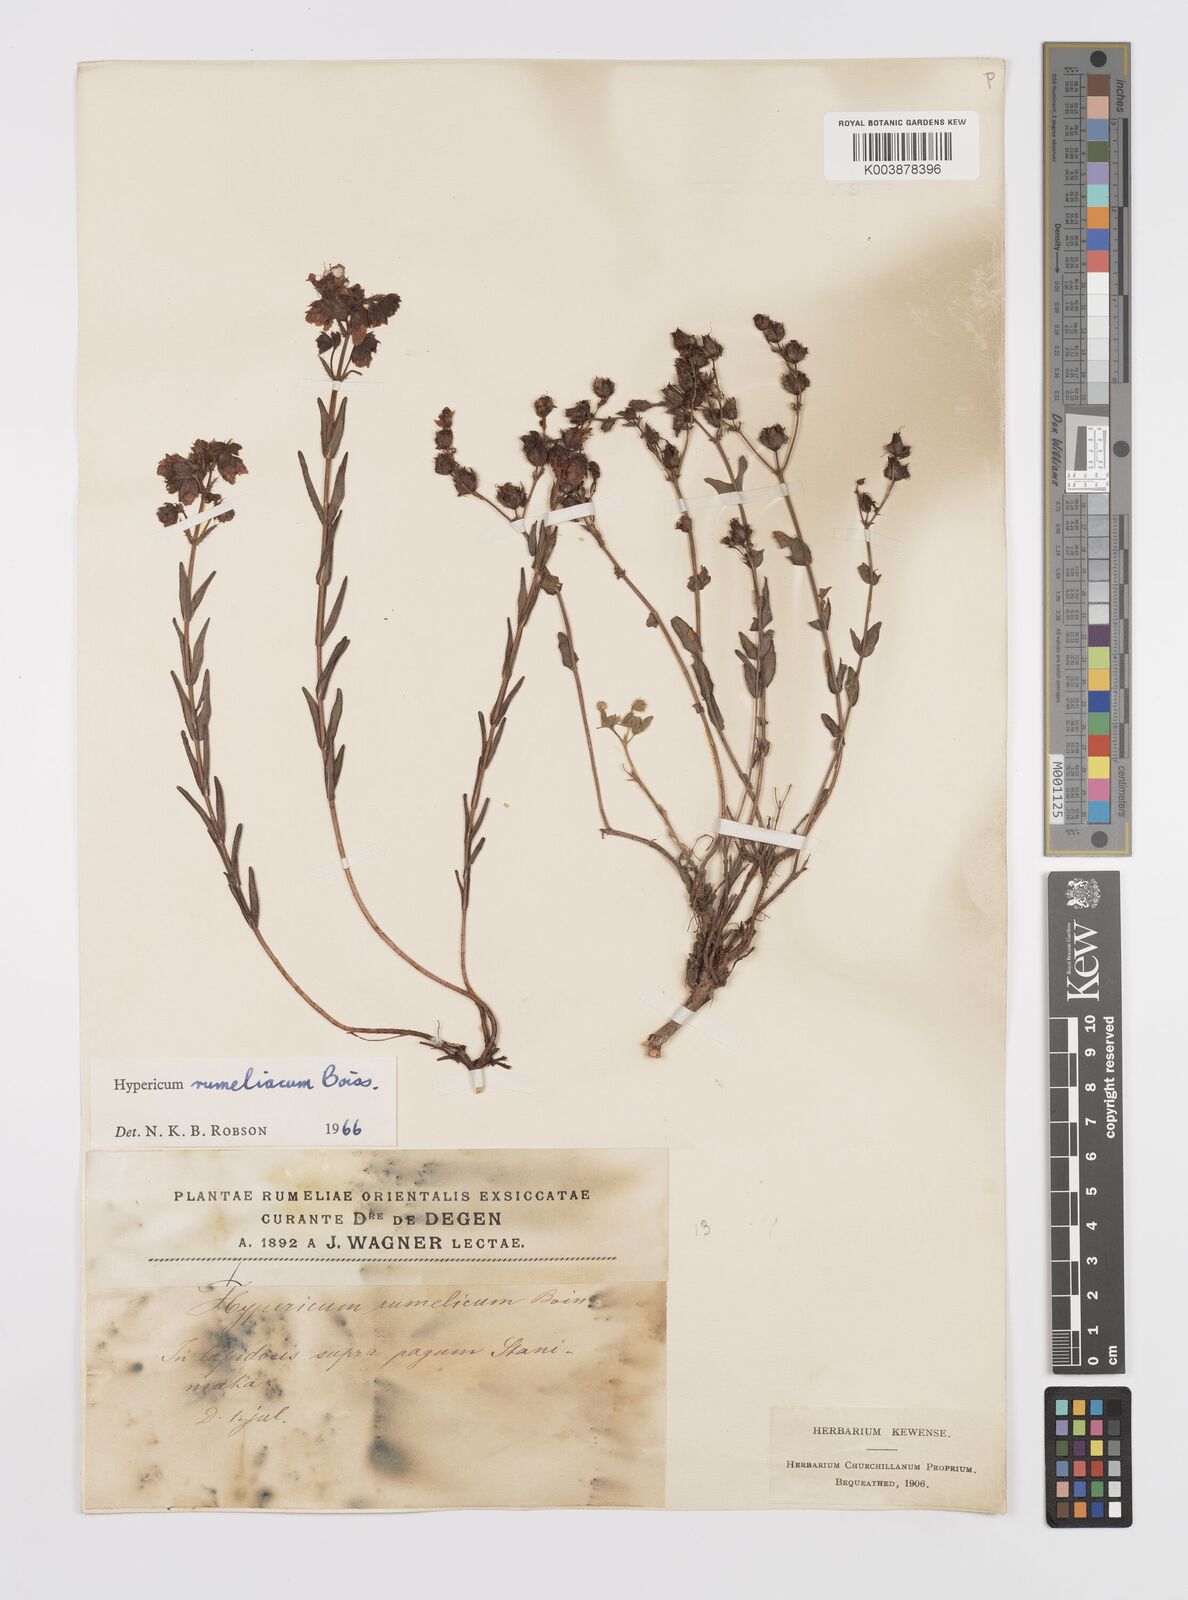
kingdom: Plantae
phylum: Tracheophyta
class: Magnoliopsida
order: Malpighiales
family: Hypericaceae
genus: Hypericum
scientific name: Hypericum rumeliacum
